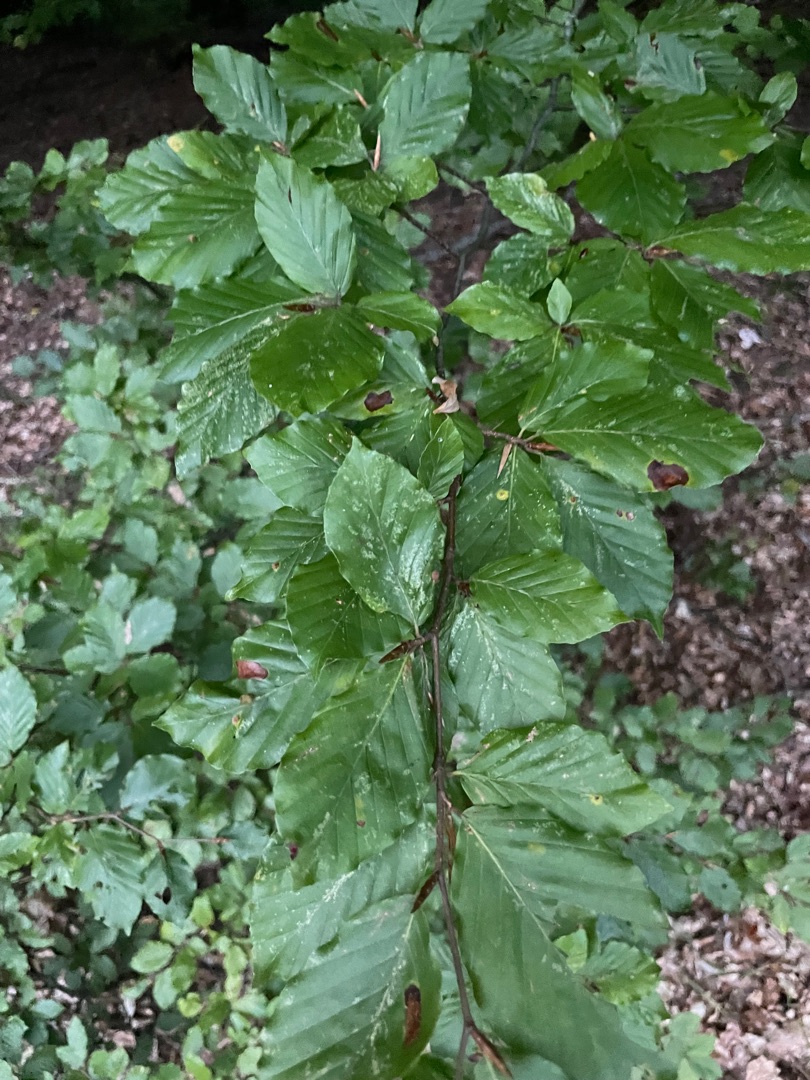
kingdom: Plantae
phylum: Tracheophyta
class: Magnoliopsida
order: Fagales
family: Fagaceae
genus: Fagus
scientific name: Fagus sylvatica
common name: Bøg
